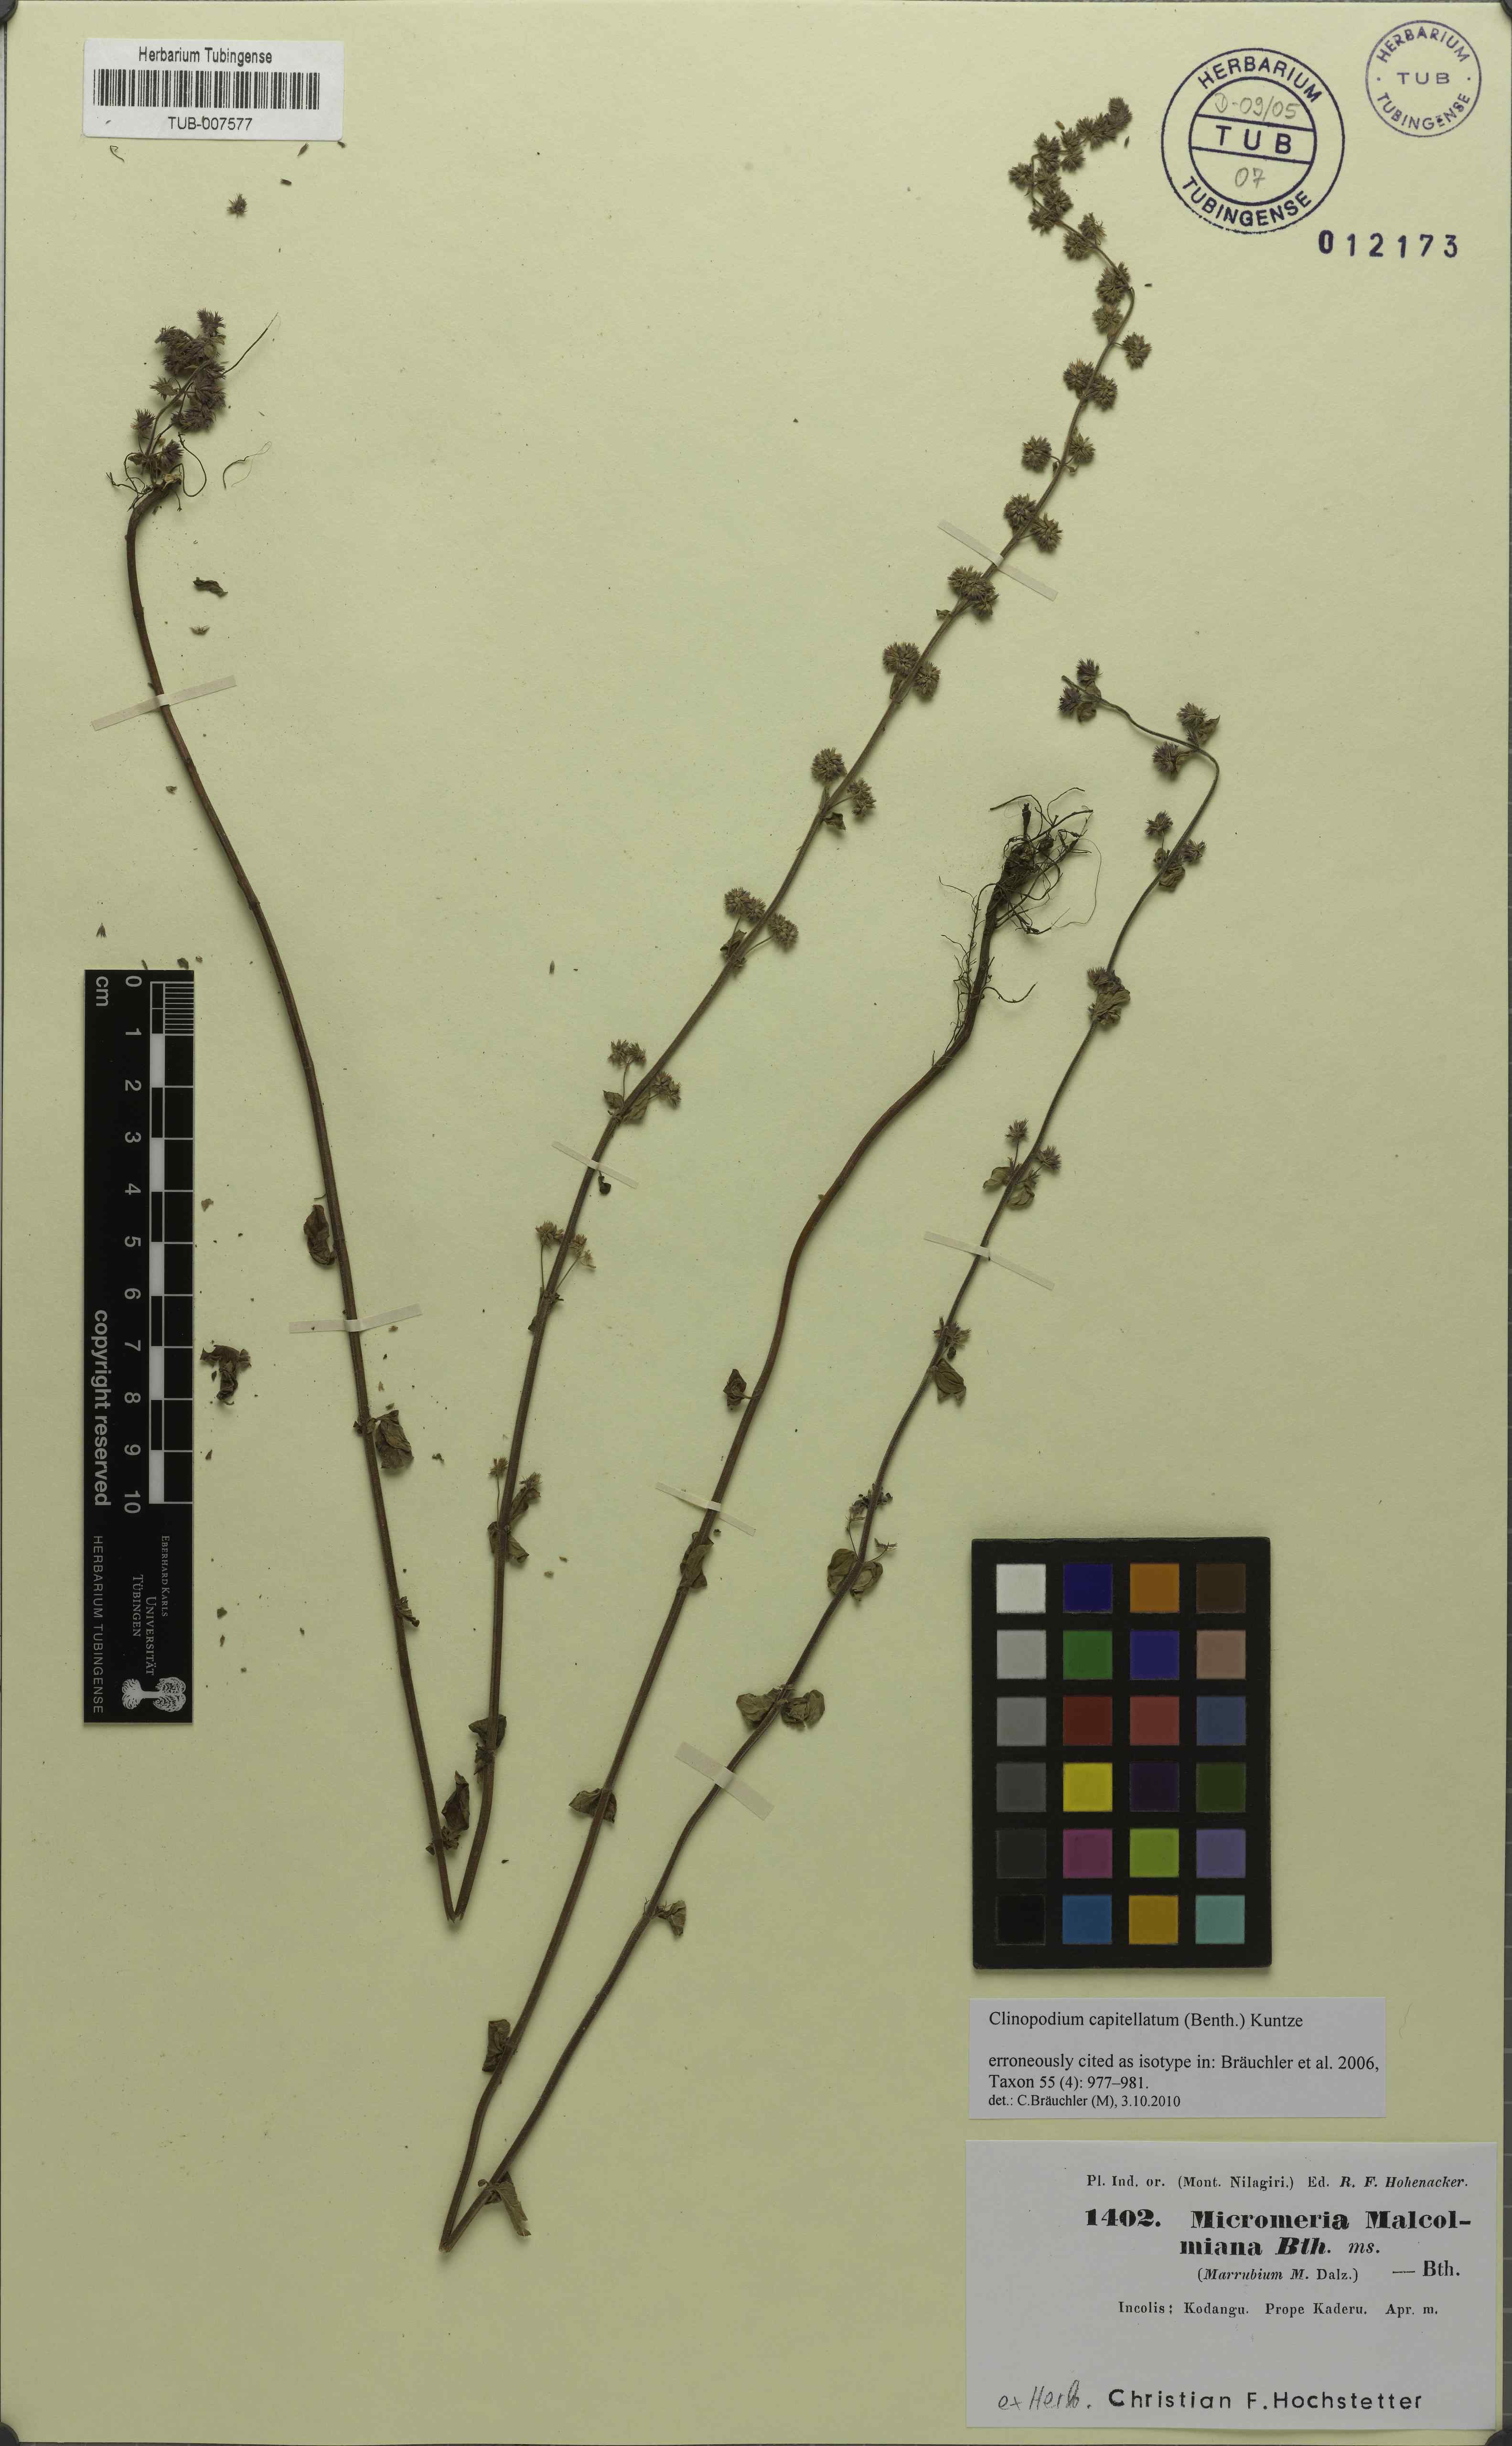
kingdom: Plantae
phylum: Tracheophyta
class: Magnoliopsida
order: Lamiales
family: Lamiaceae
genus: Clinopodium
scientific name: Clinopodium capitellatum
